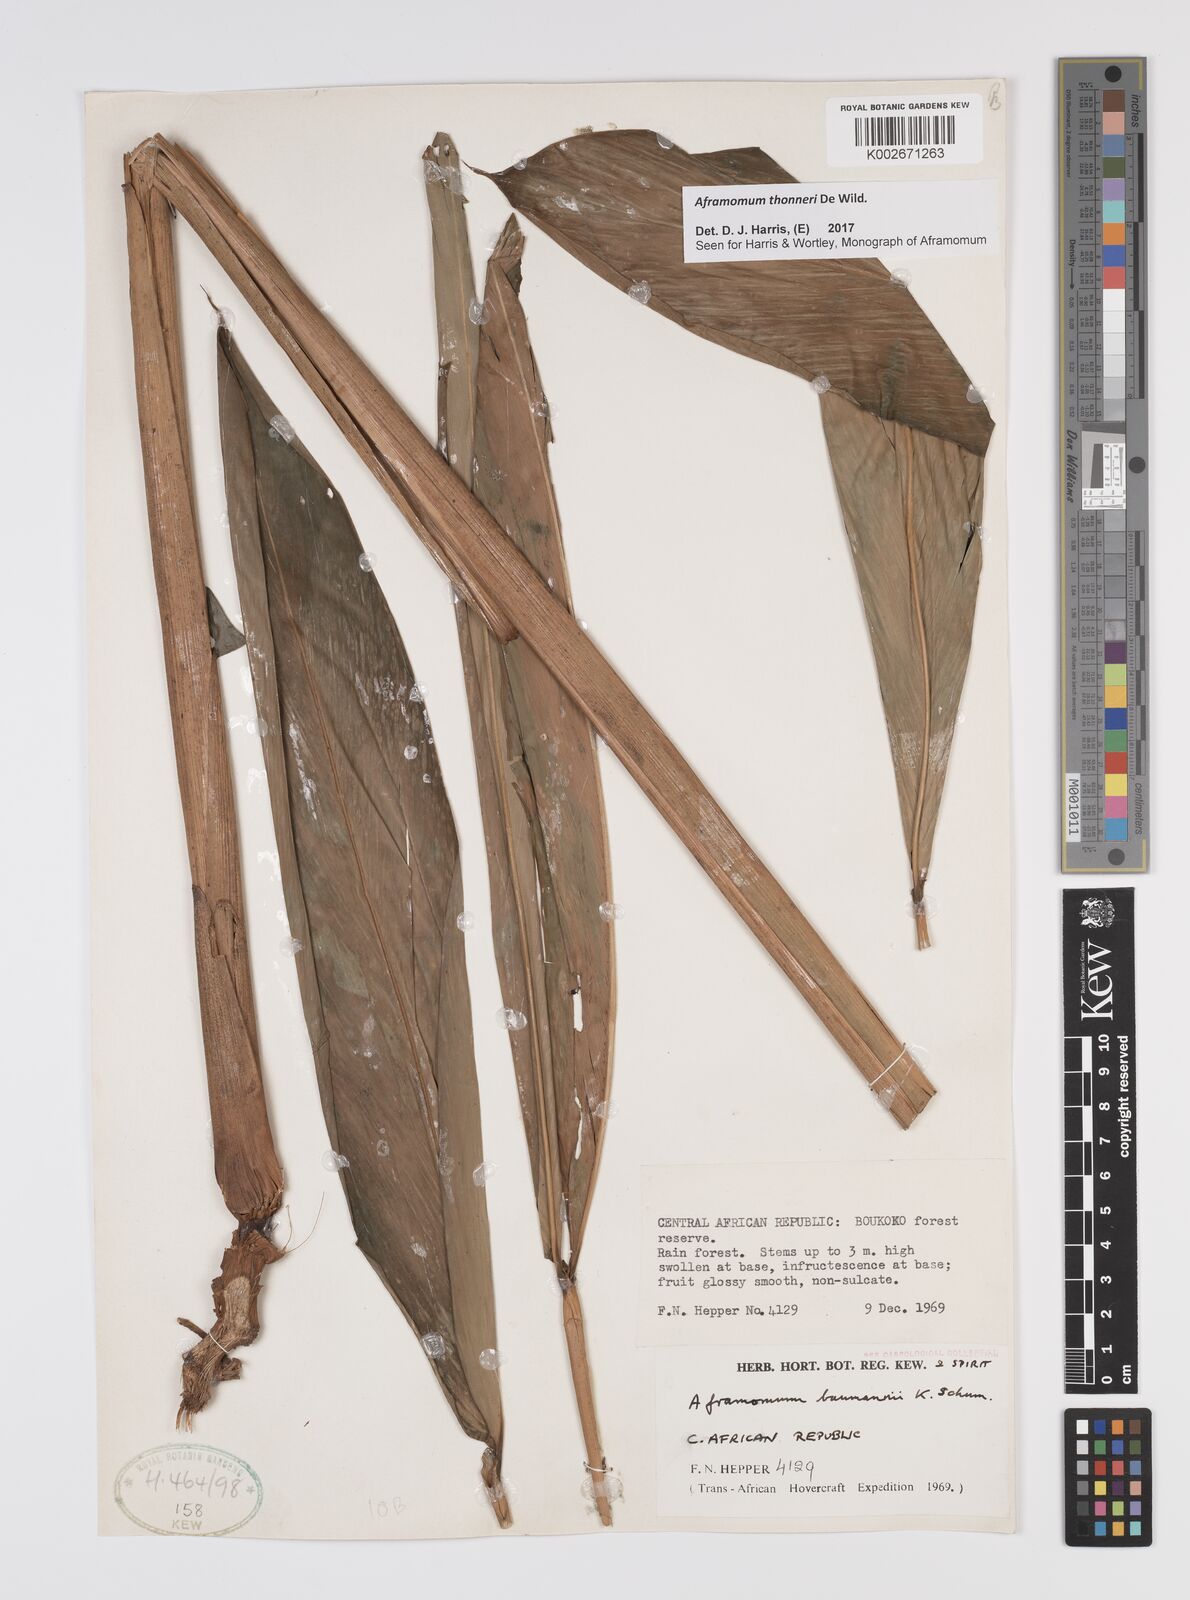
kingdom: Plantae
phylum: Tracheophyta
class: Liliopsida
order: Zingiberales
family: Zingiberaceae
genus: Aframomum
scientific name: Aframomum thonneri
